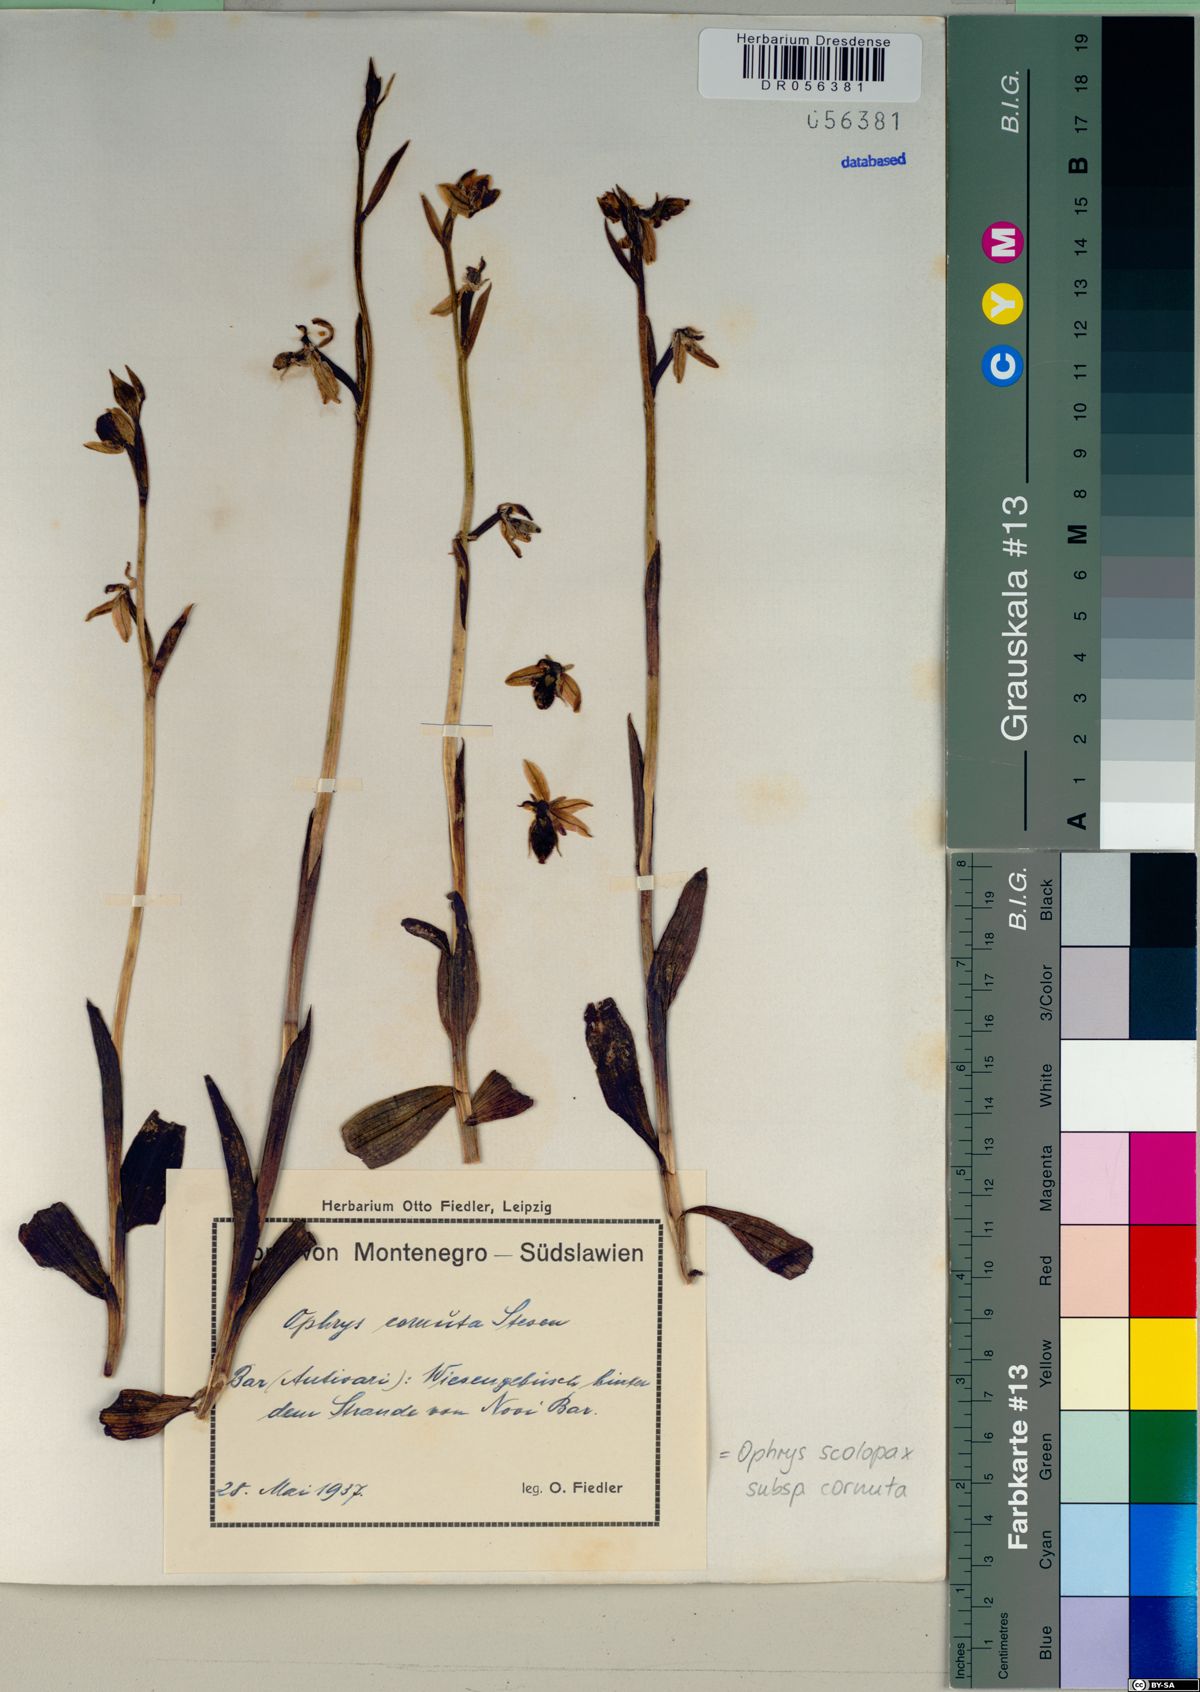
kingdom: Plantae
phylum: Tracheophyta
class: Liliopsida
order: Asparagales
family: Orchidaceae
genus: Ophrys
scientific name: Ophrys scolopax
